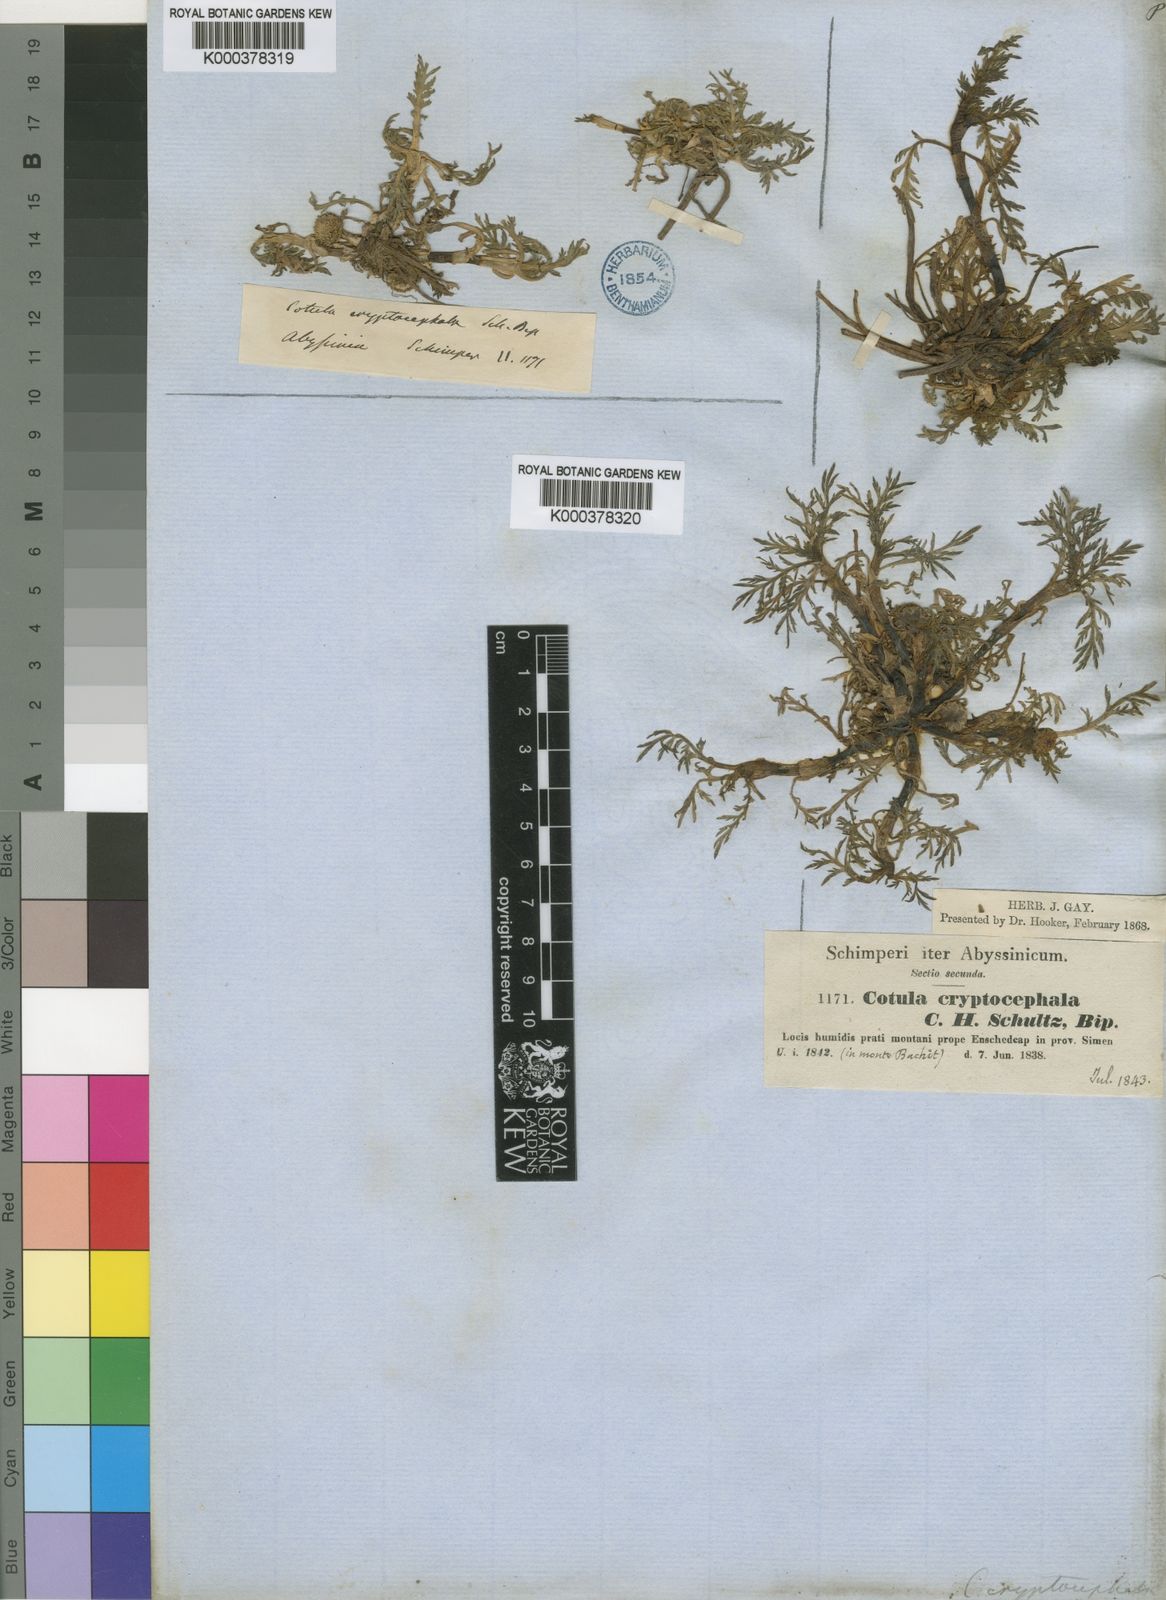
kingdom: Plantae
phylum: Tracheophyta
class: Magnoliopsida
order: Asterales
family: Asteraceae
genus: Cotula
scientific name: Cotula cryptocephala
